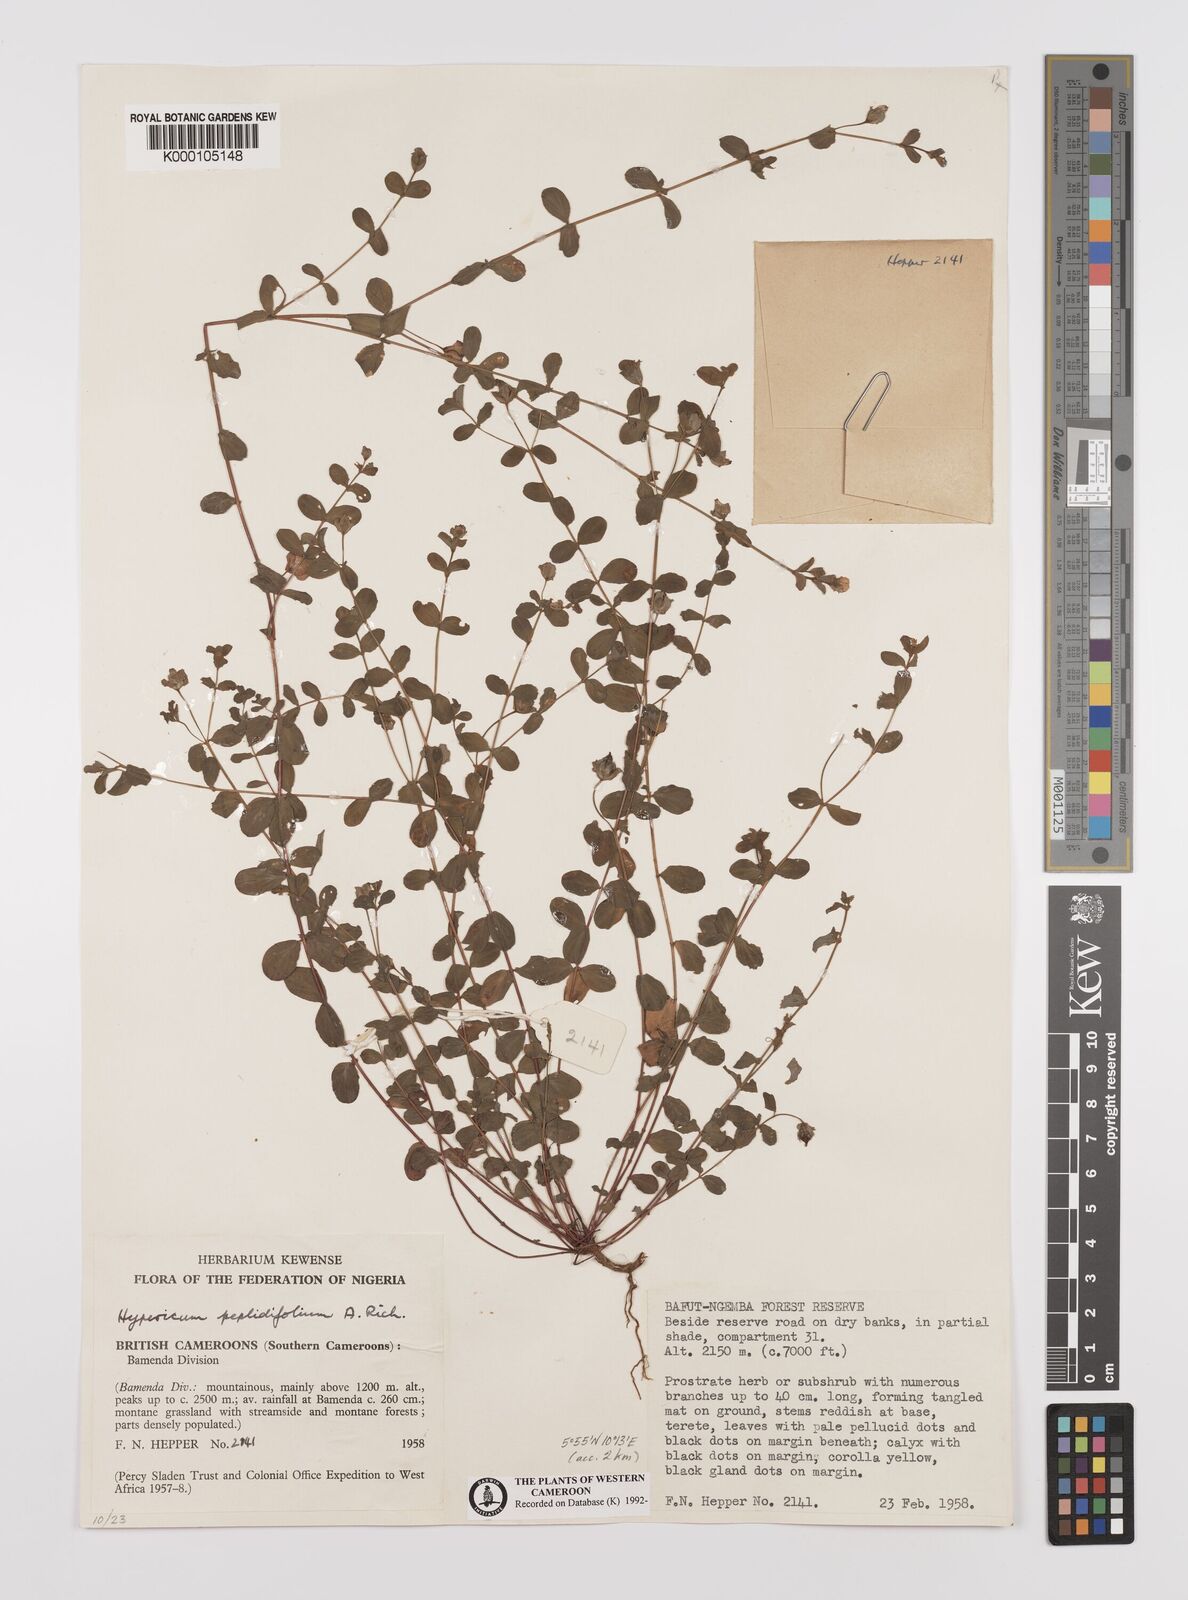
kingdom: Plantae
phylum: Tracheophyta
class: Magnoliopsida
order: Malpighiales
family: Hypericaceae
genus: Hypericum
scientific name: Hypericum peplidifolium
